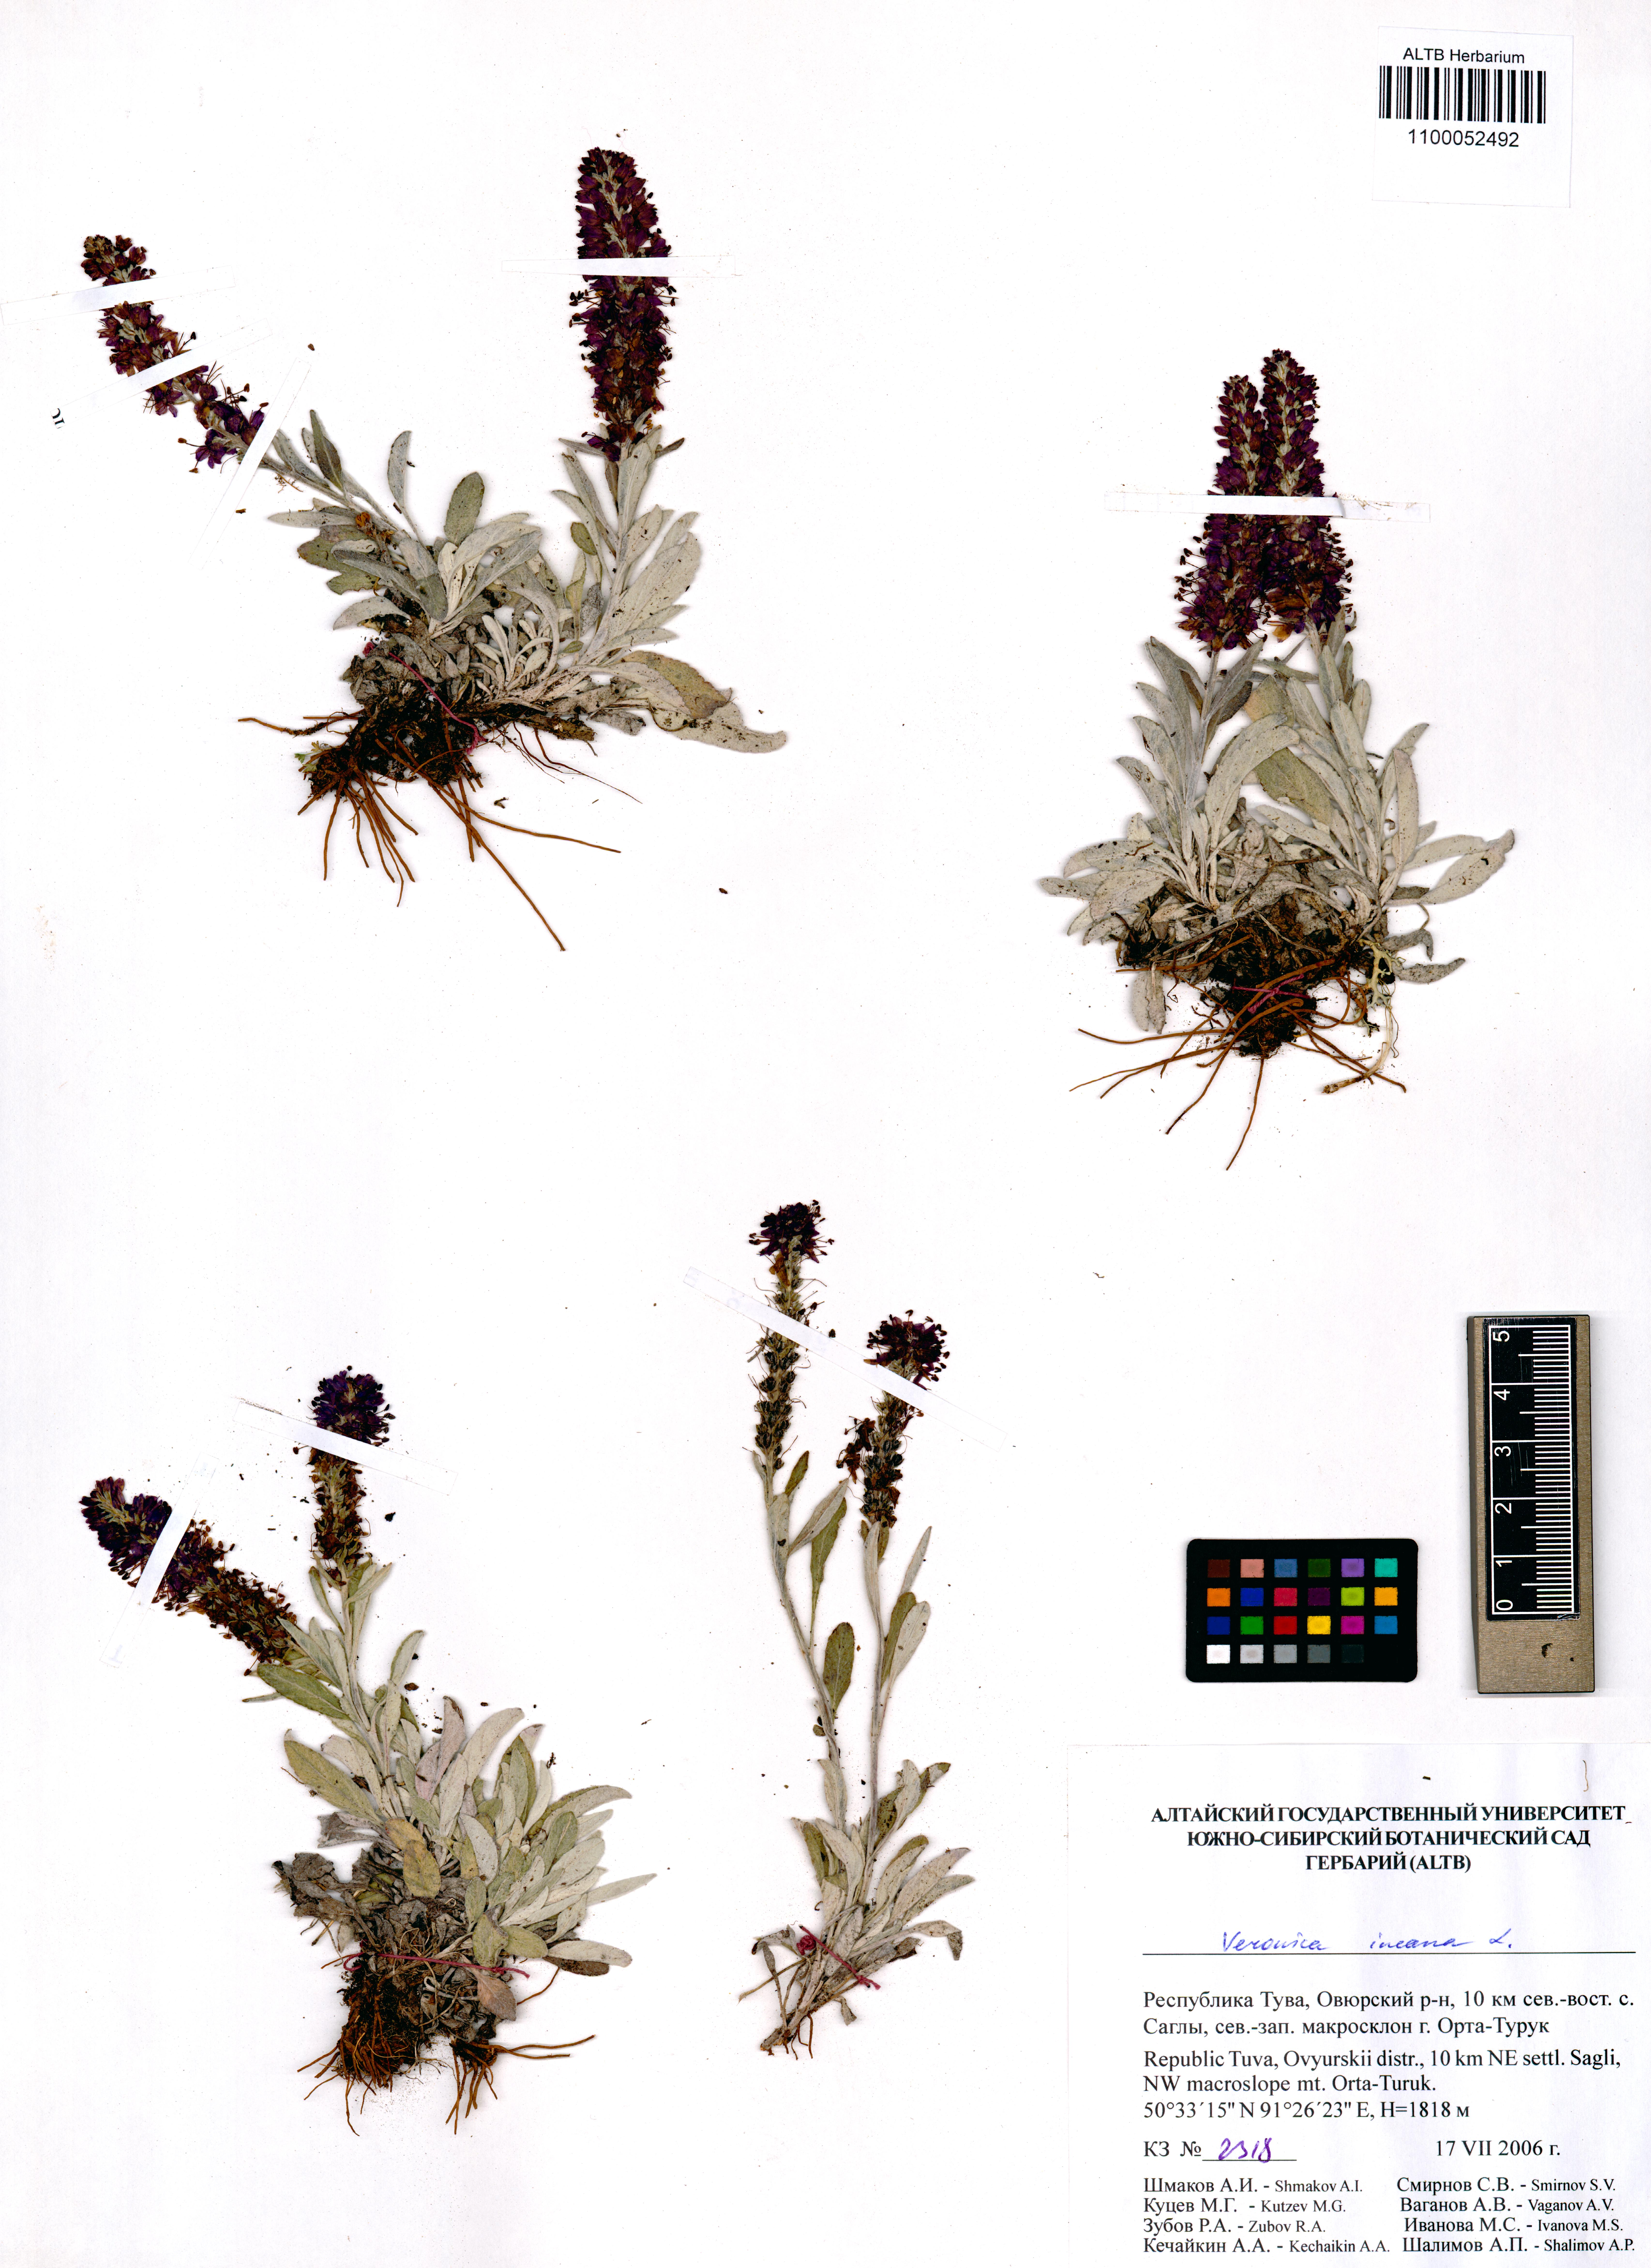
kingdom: Plantae
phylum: Tracheophyta
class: Magnoliopsida
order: Lamiales
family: Plantaginaceae
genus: Veronica
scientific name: Veronica incana
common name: Silver speedwell
